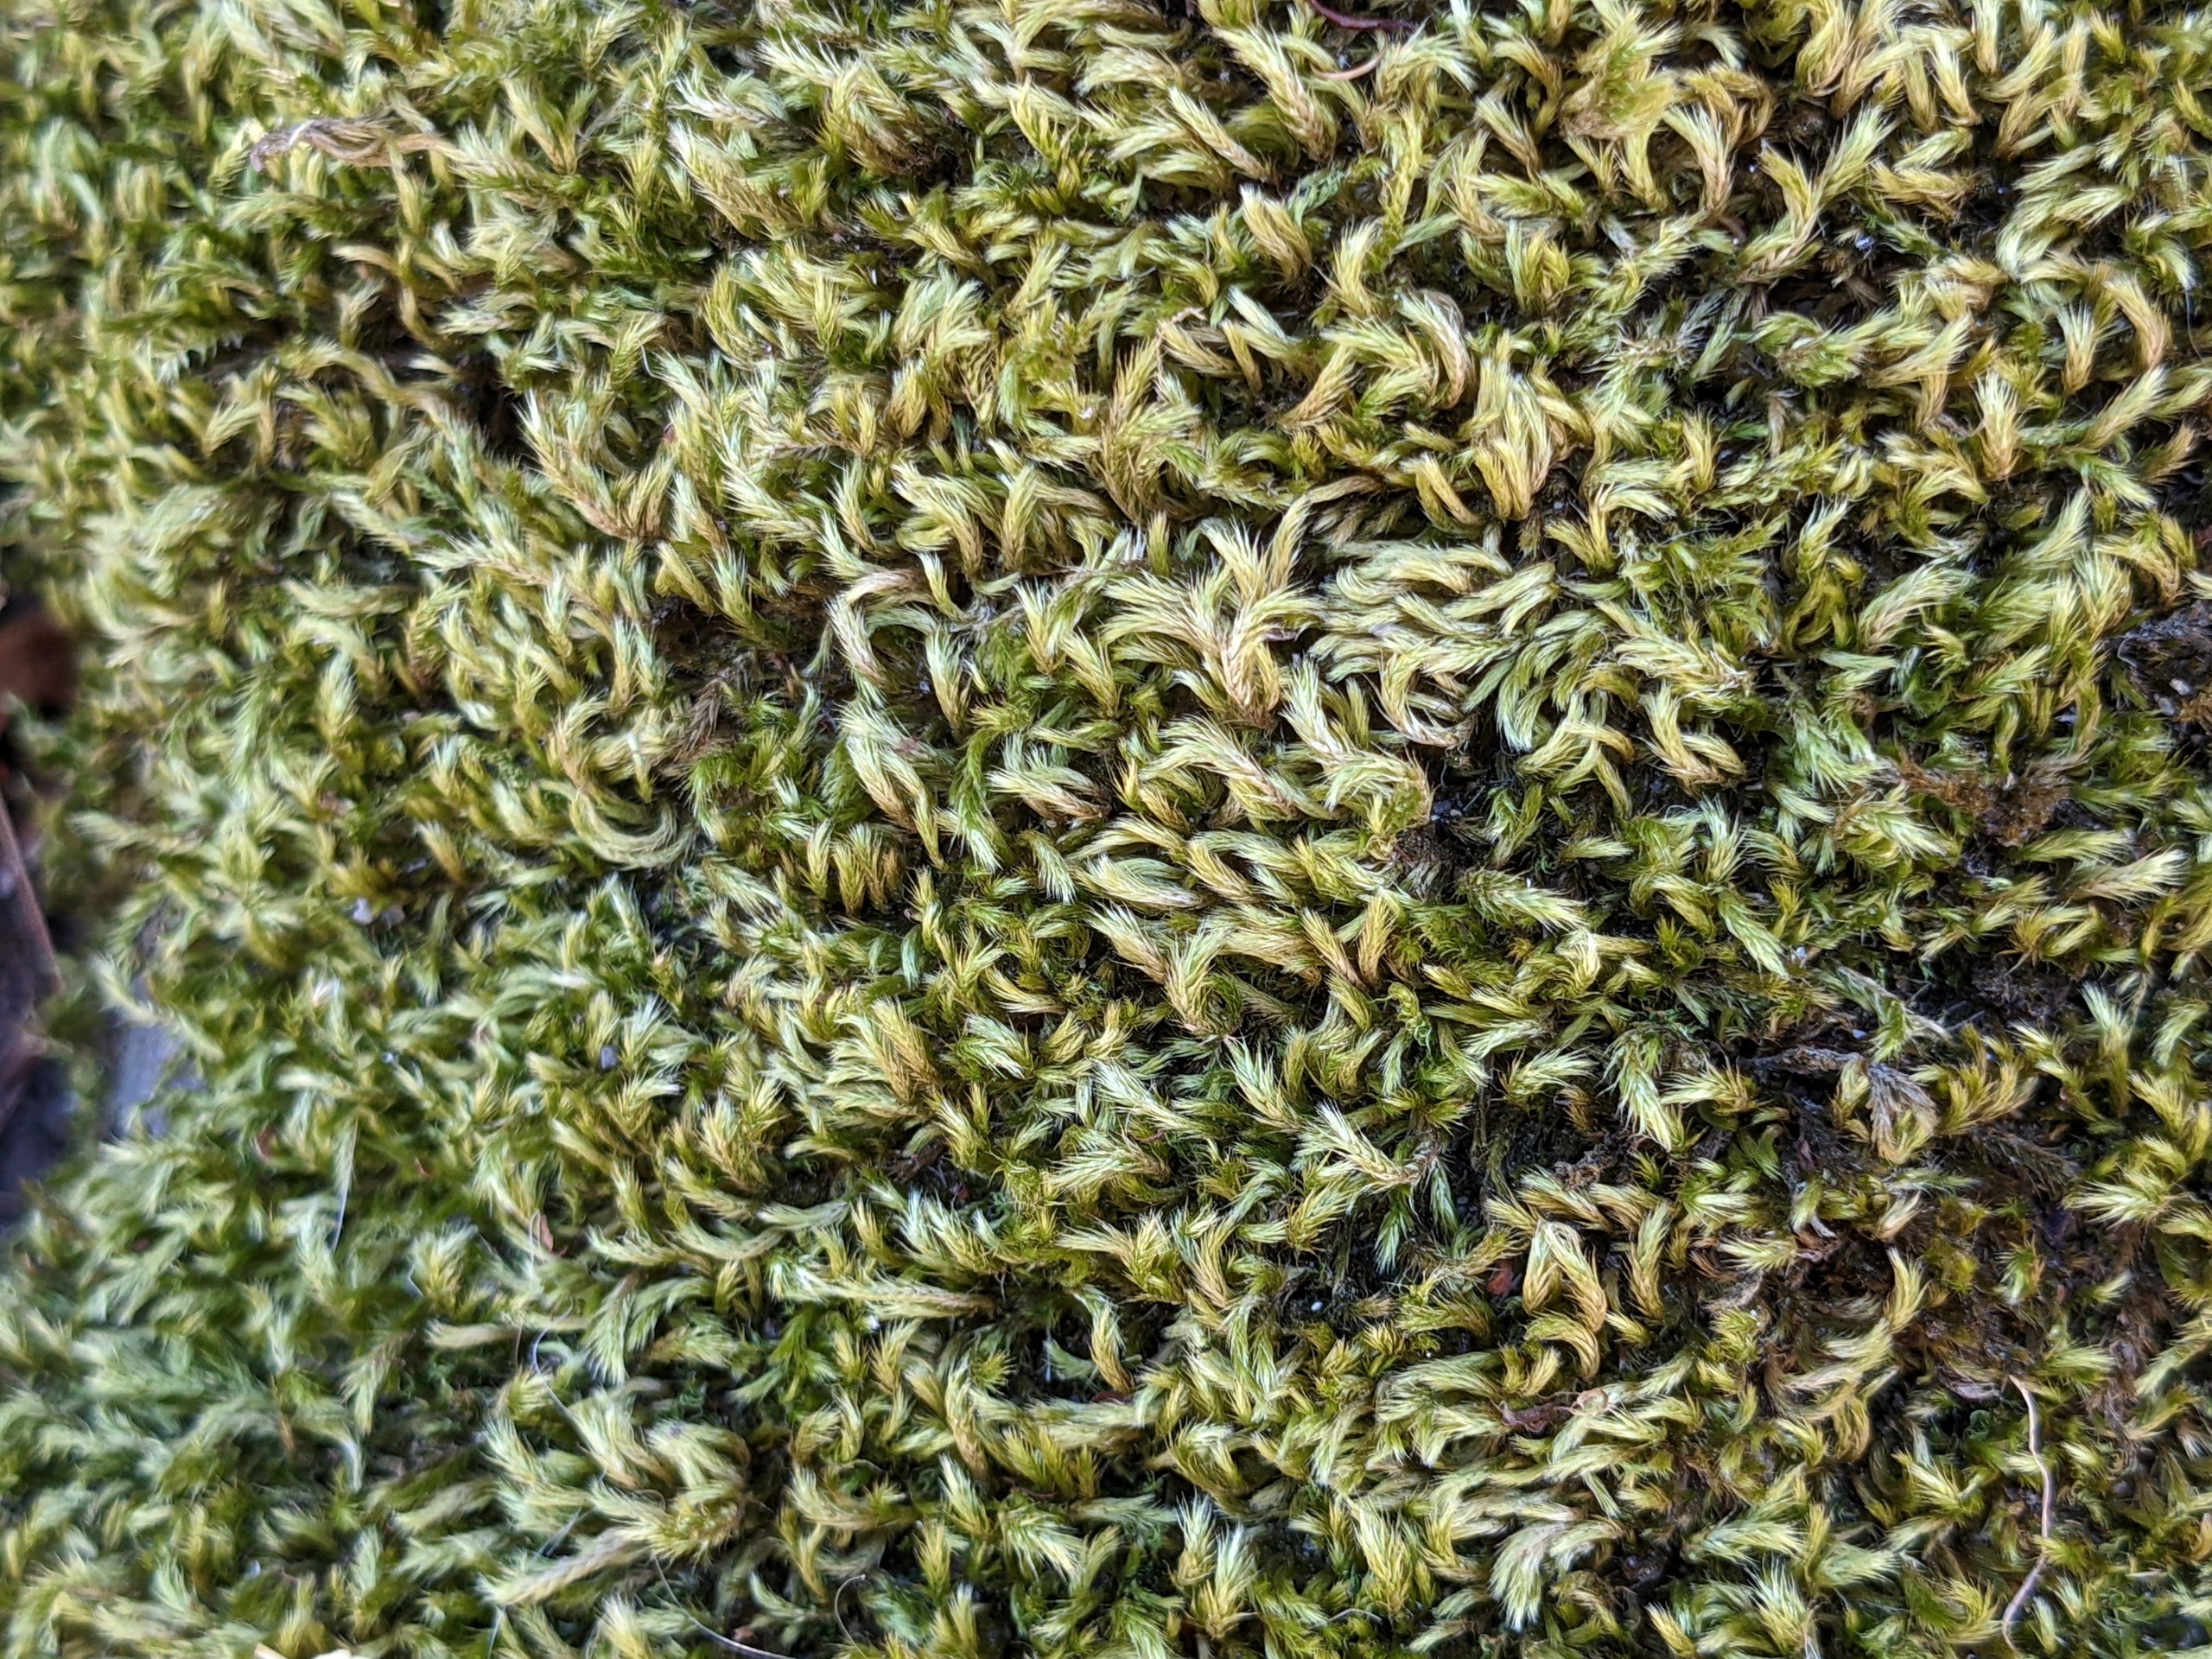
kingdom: Plantae
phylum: Bryophyta
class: Bryopsida
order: Hypnales
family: Brachytheciaceae
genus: Homalothecium
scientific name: Homalothecium sericeum
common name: Krybende silkemos
